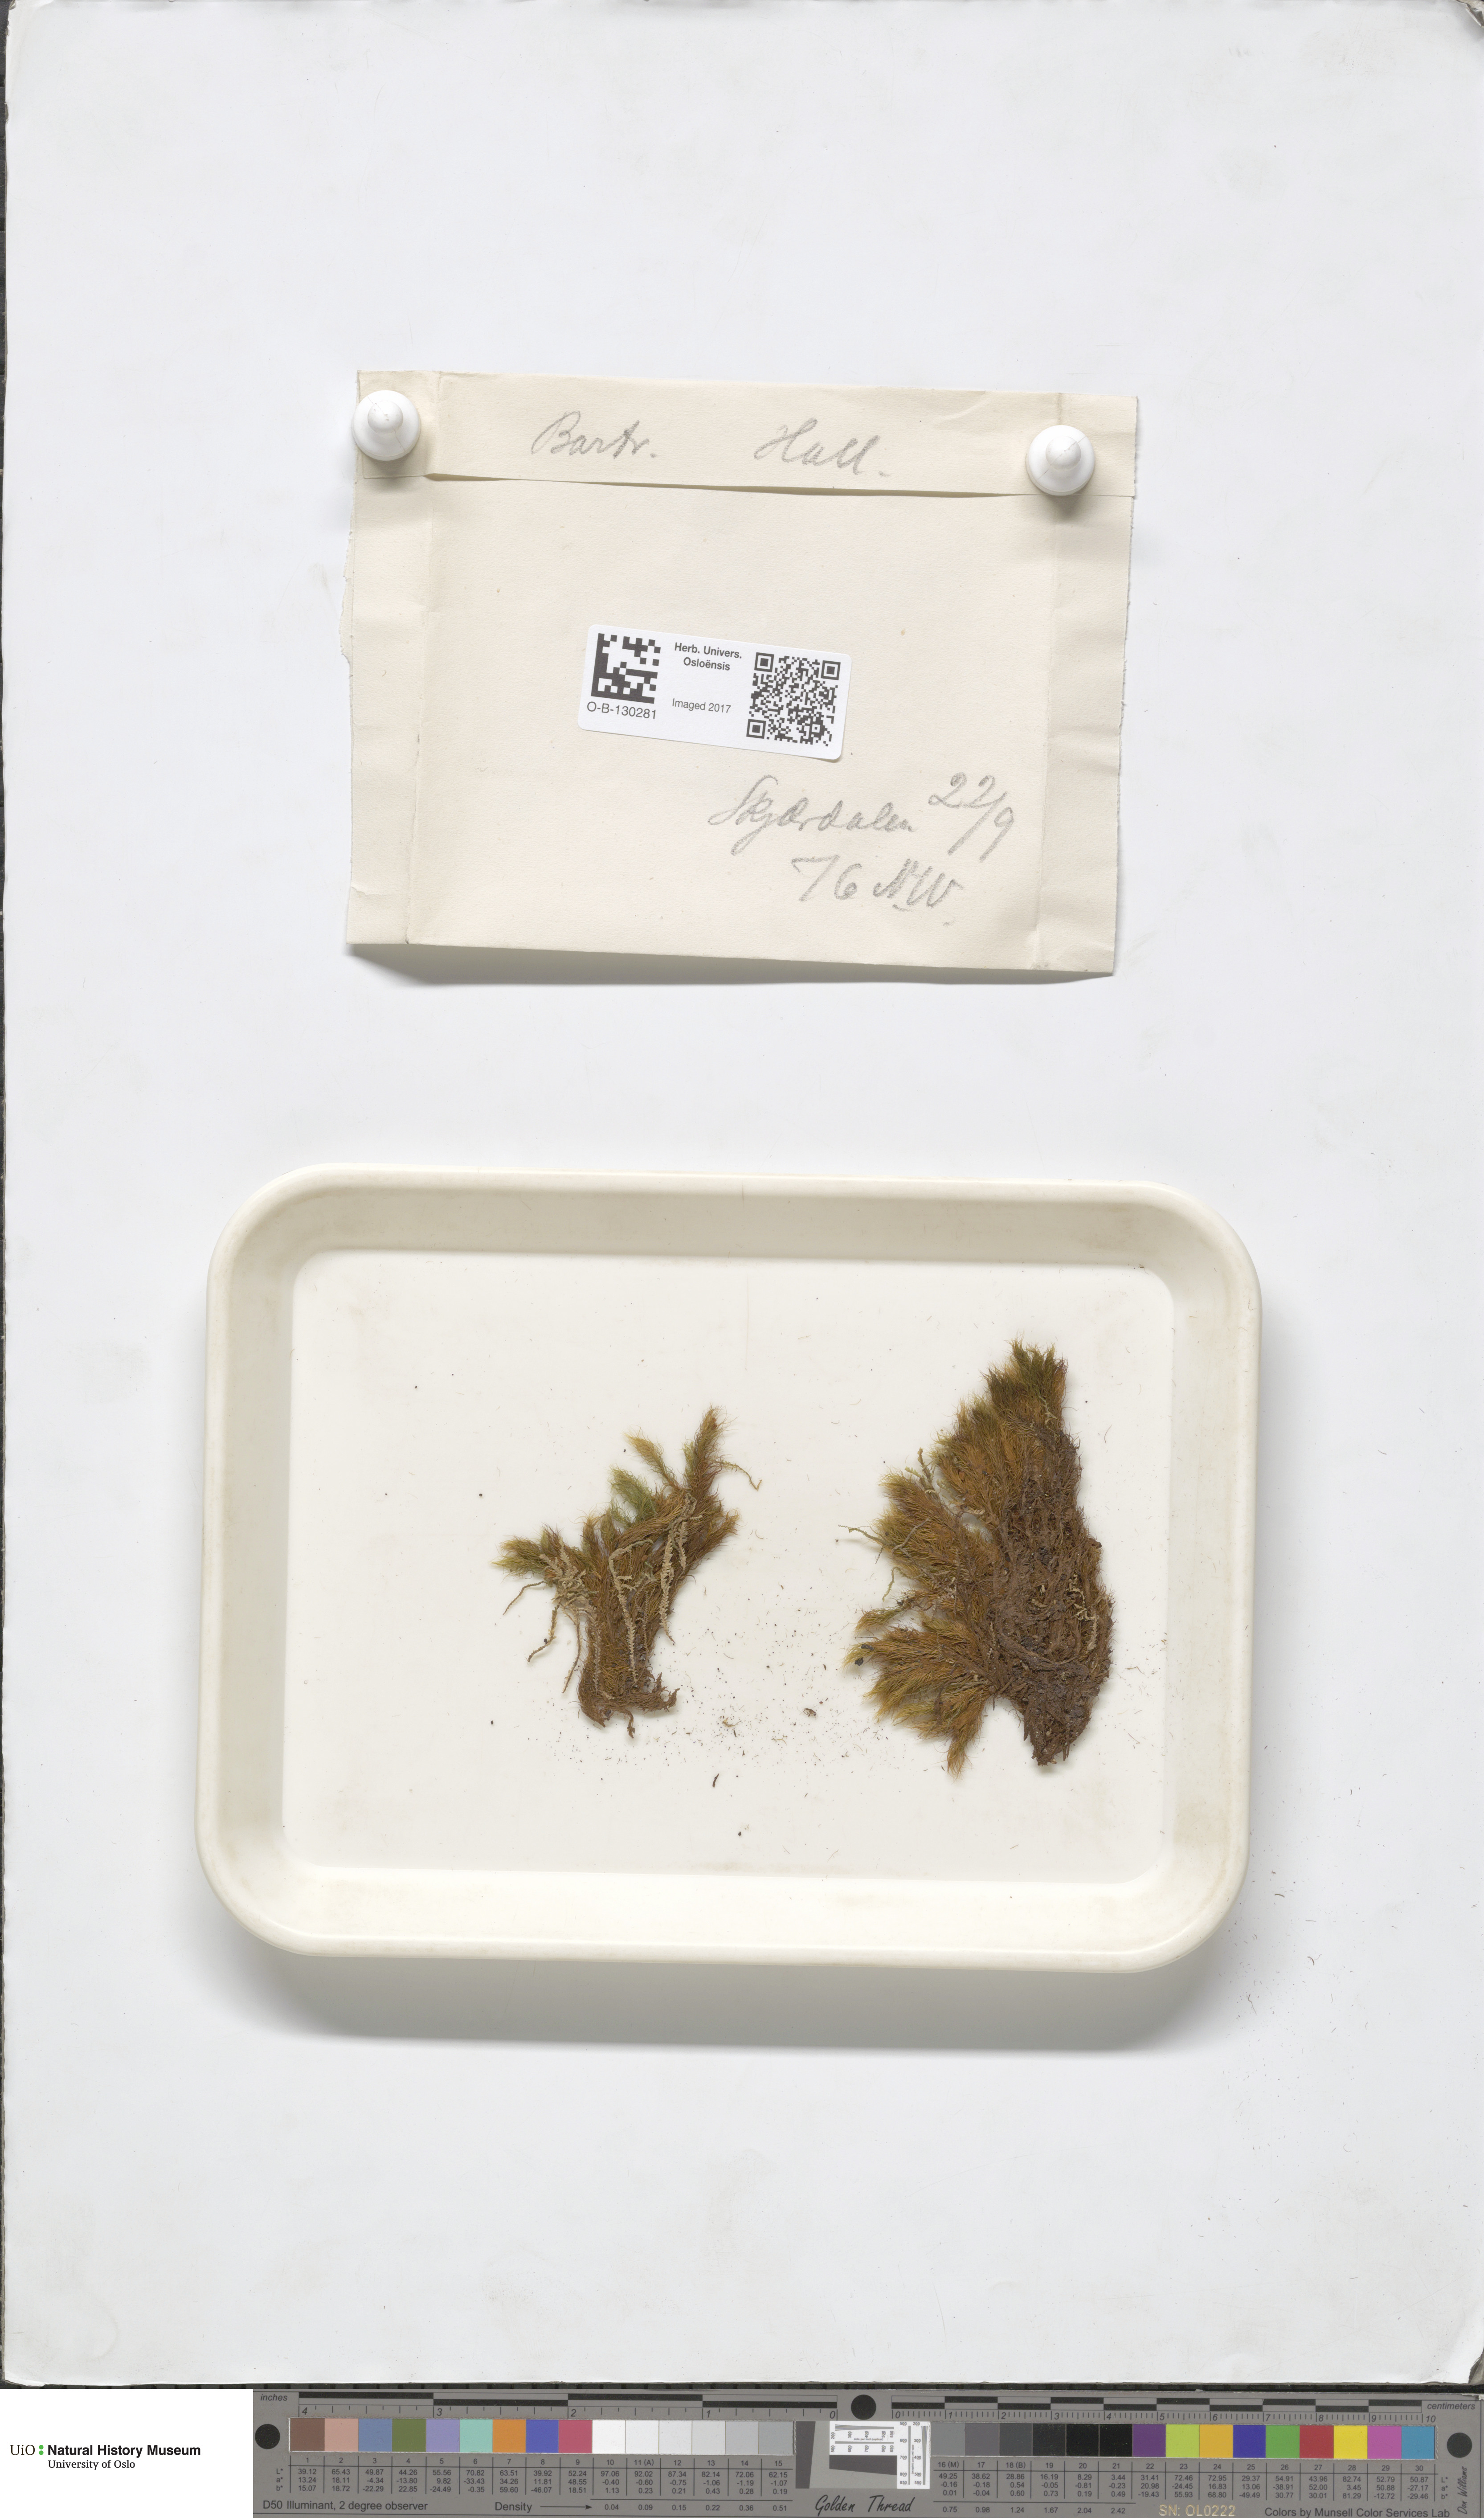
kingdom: Plantae
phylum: Bryophyta
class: Bryopsida
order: Bartramiales
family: Bartramiaceae
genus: Bartramia
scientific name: Bartramia halleriana
